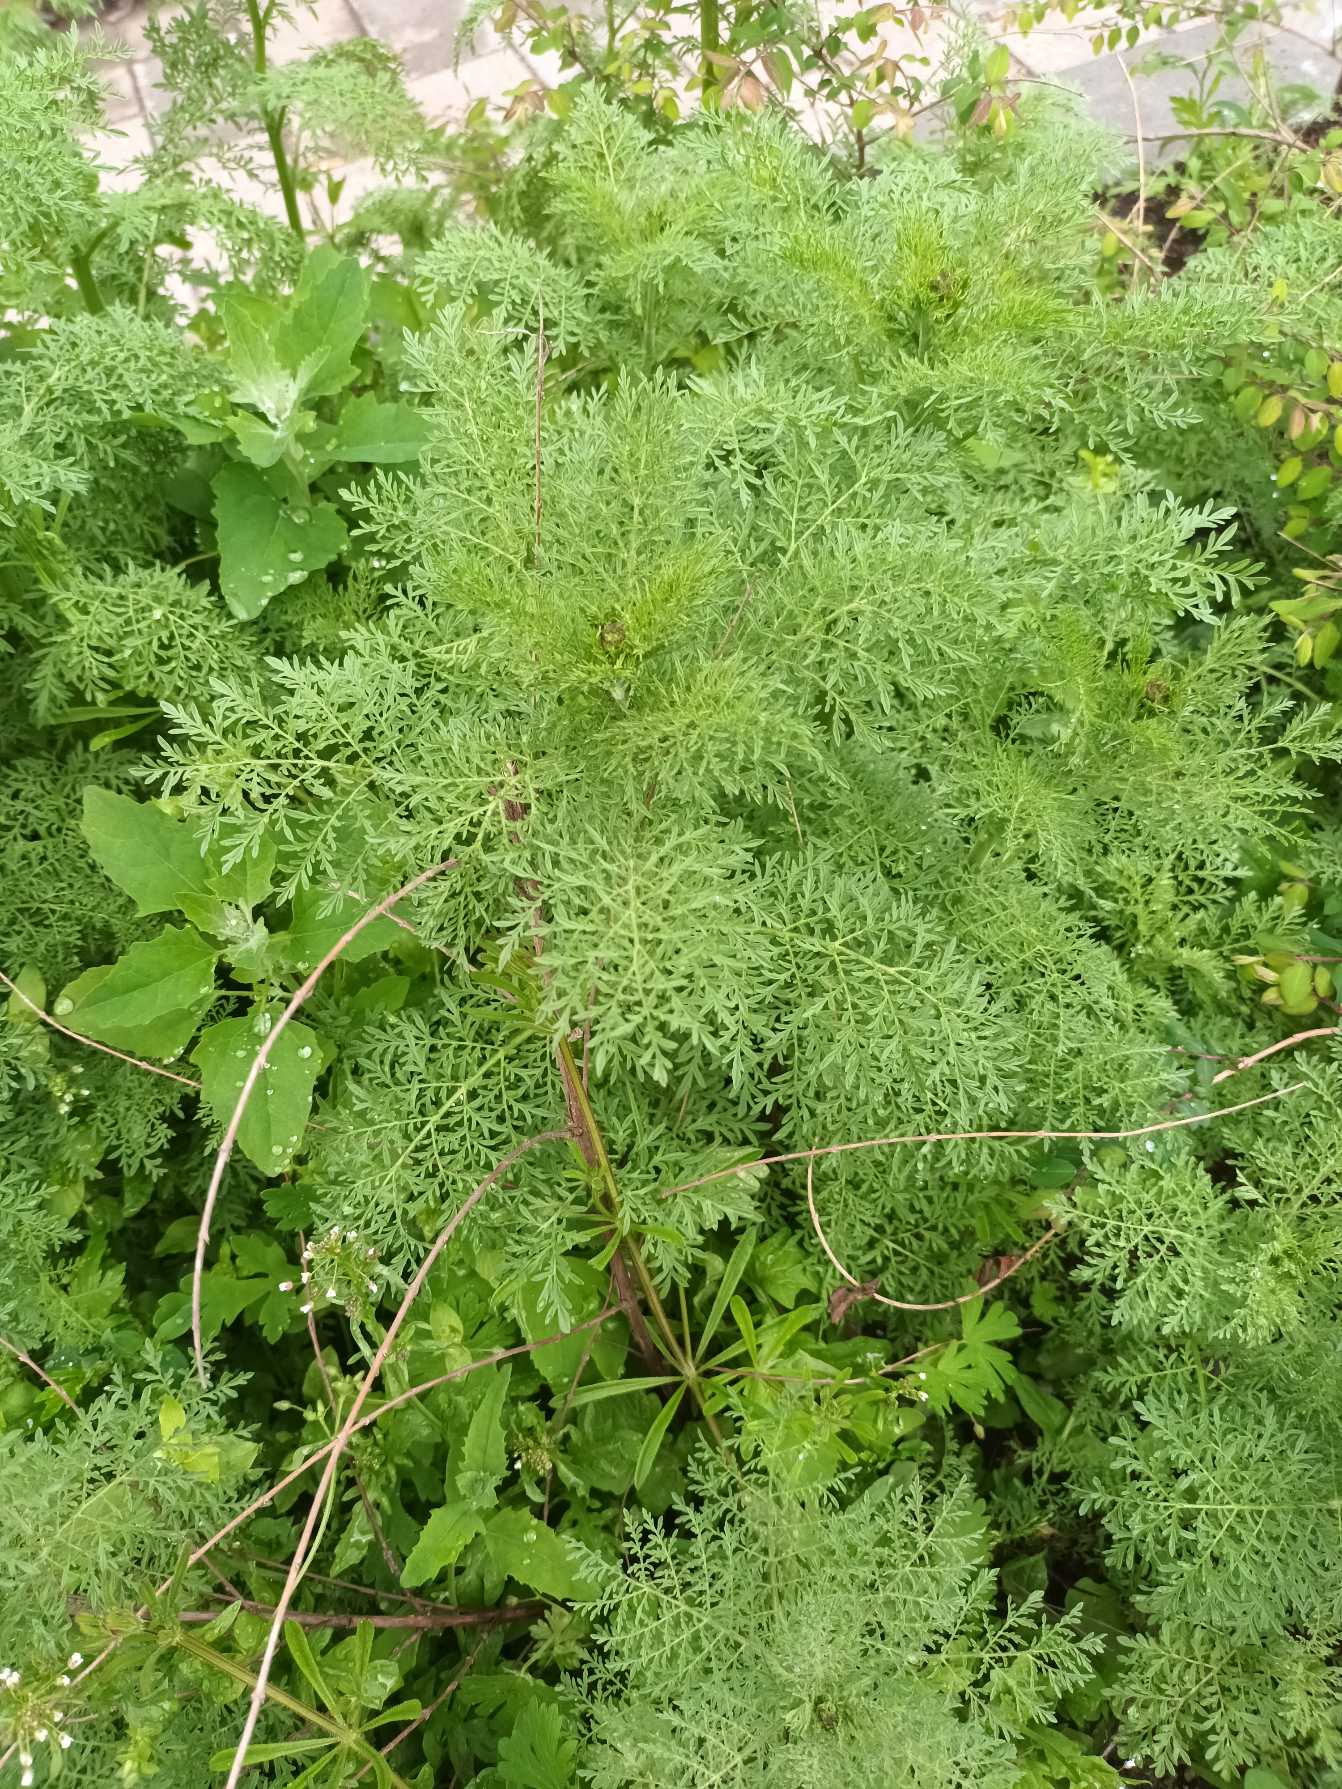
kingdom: Plantae
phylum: Tracheophyta
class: Magnoliopsida
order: Brassicales
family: Brassicaceae
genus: Descurainia
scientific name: Descurainia sophia
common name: Finbladet vejsennep
